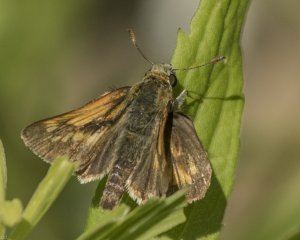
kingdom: Animalia
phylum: Arthropoda
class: Insecta
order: Lepidoptera
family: Hesperiidae
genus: Polites
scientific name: Polites
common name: Long Dash Skipper
